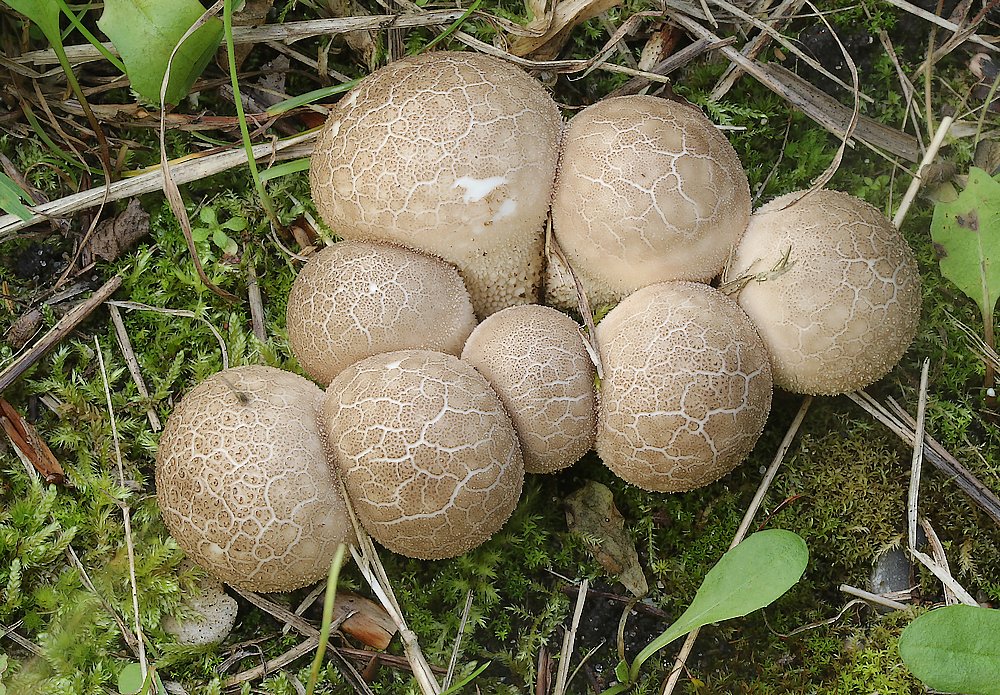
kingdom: Fungi
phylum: Basidiomycota
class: Agaricomycetes
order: Agaricales
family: Lycoperdaceae
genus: Apioperdon
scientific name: Apioperdon pyriforme
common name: pære-støvbold
